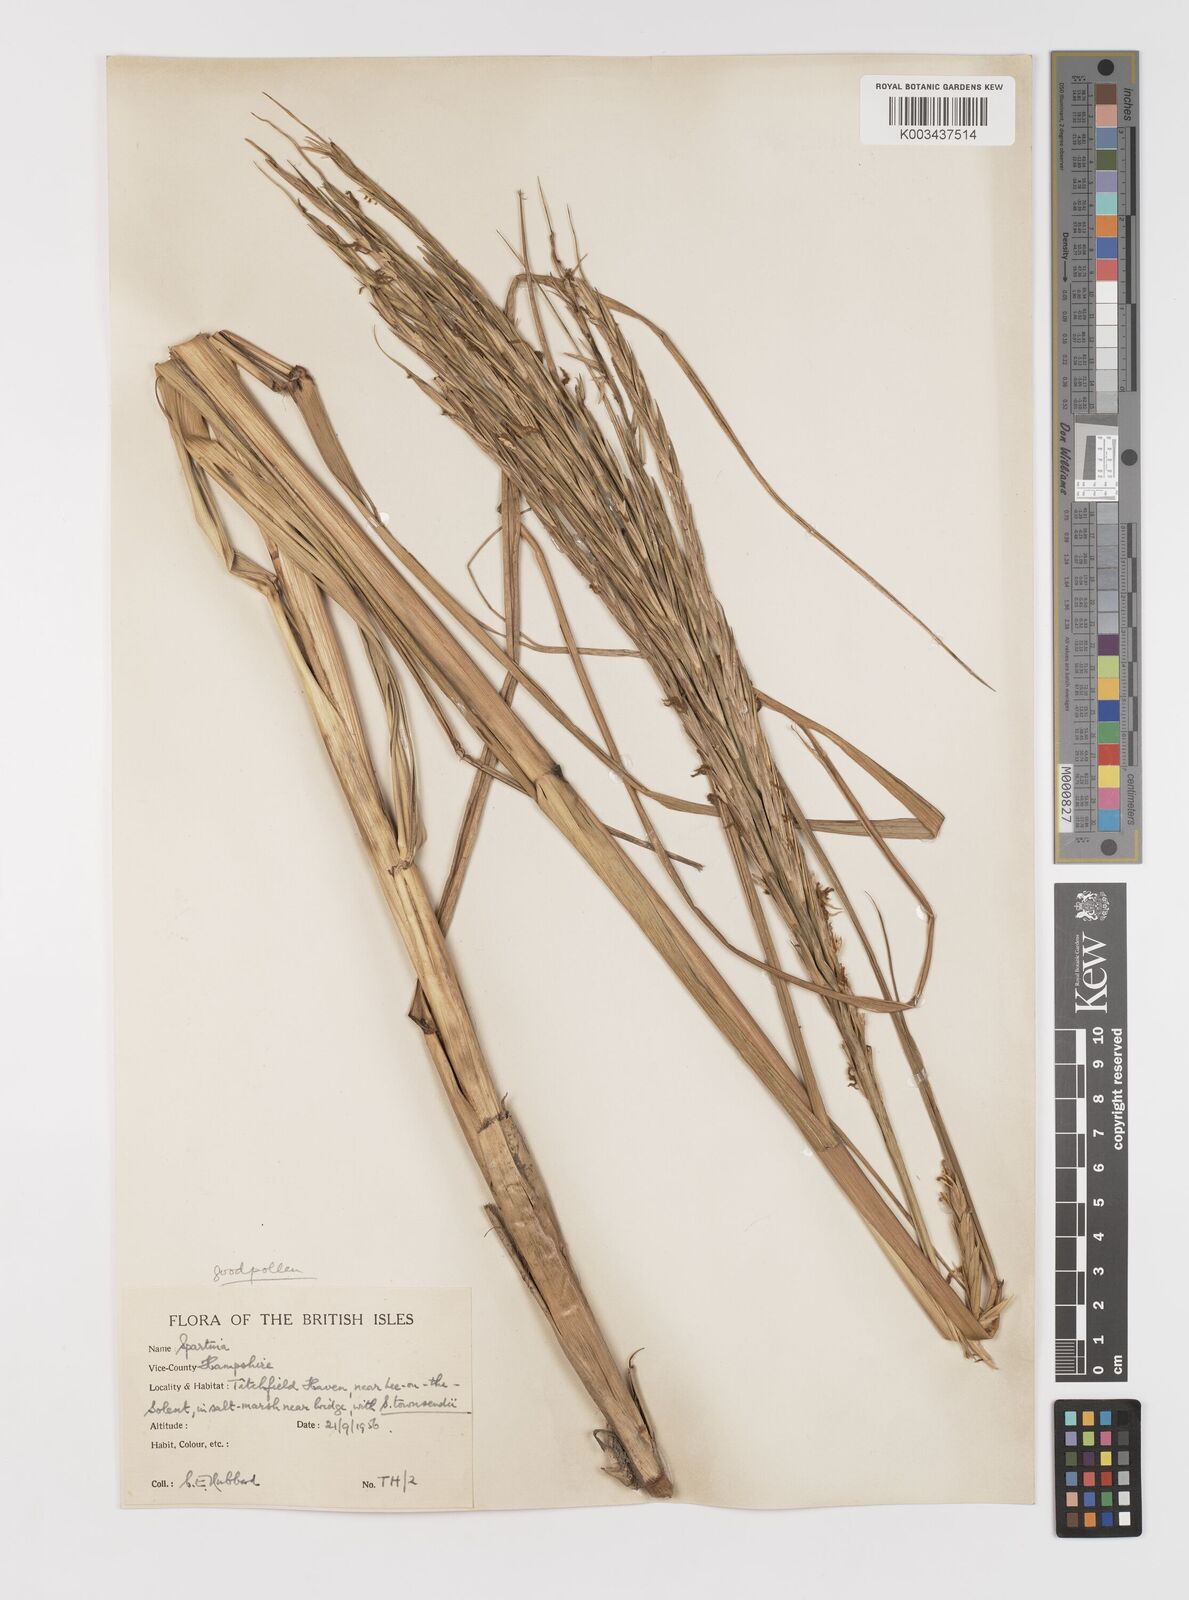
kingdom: Plantae
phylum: Tracheophyta
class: Liliopsida
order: Poales
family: Poaceae
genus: Sporobolus
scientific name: Sporobolus anglicus
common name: English cordgrass
